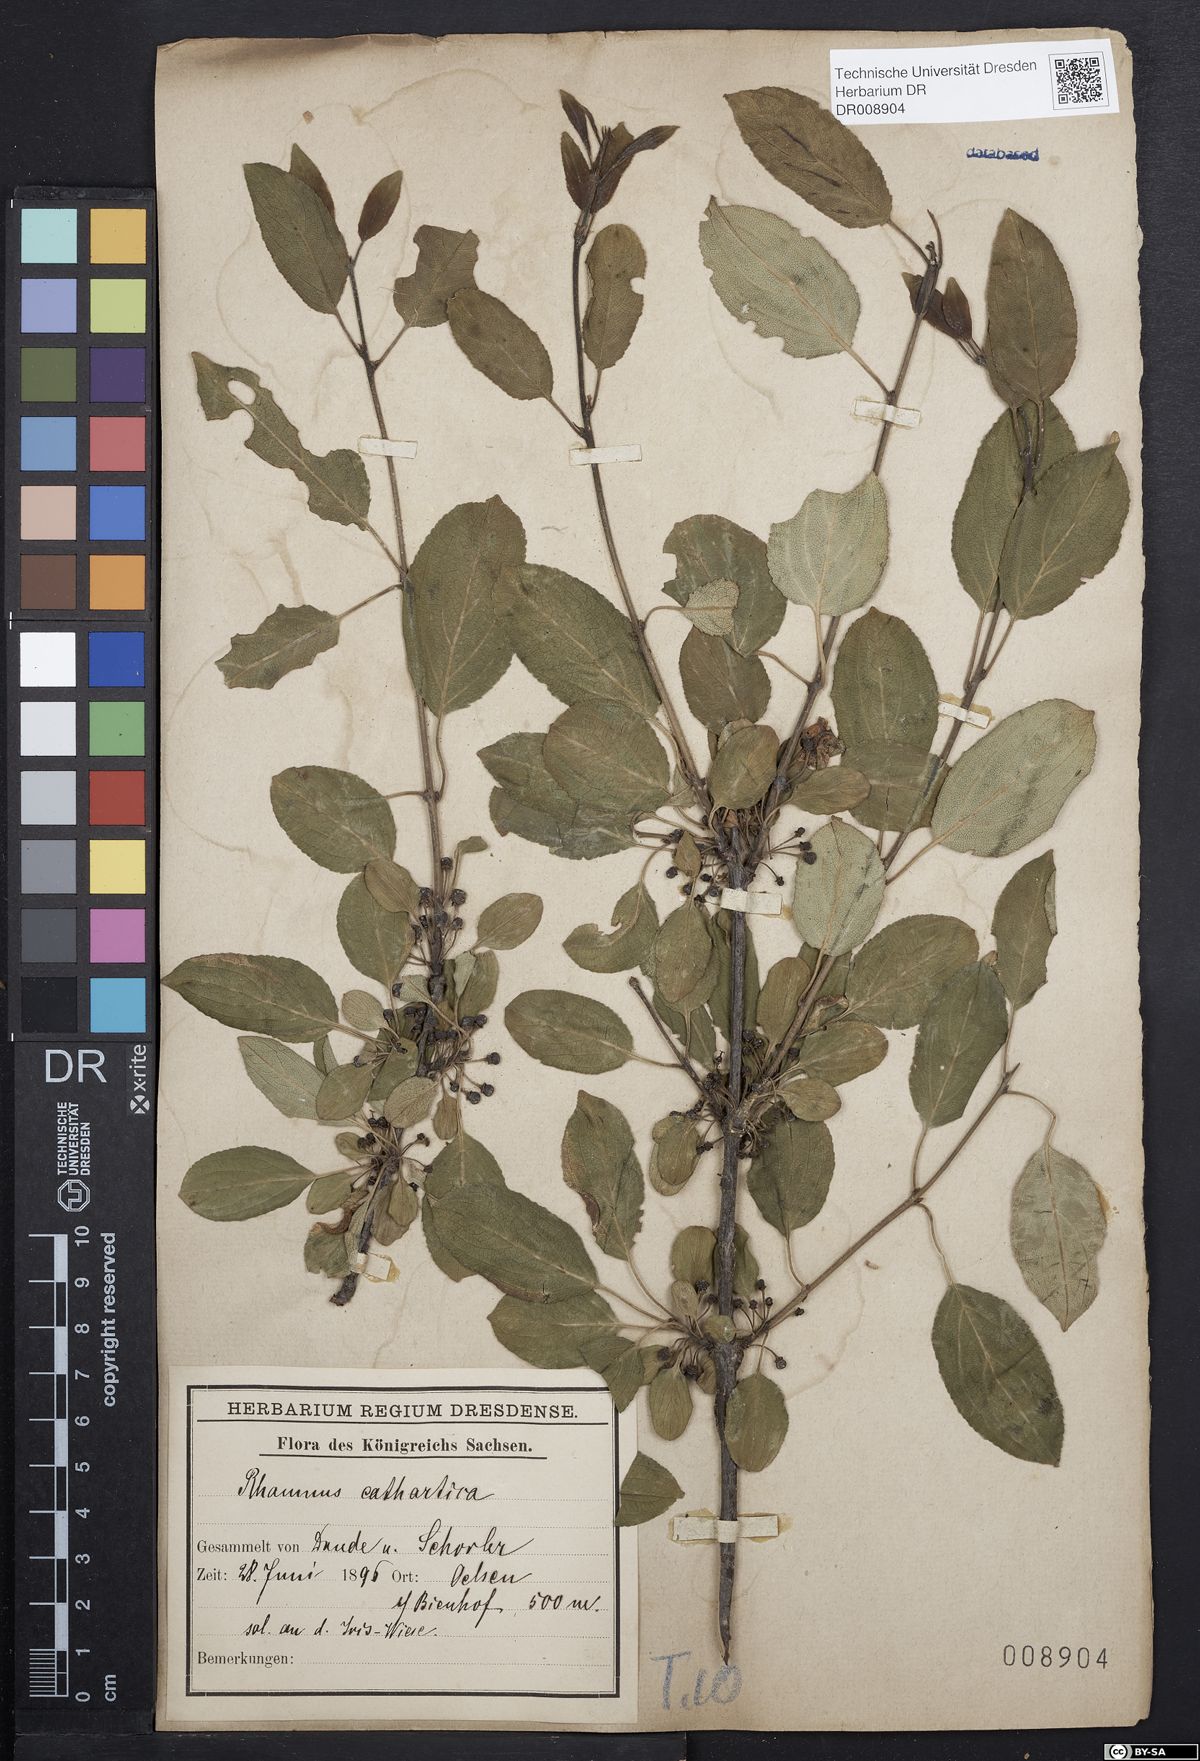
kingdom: Plantae
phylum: Tracheophyta
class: Magnoliopsida
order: Rosales
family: Rhamnaceae
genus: Rhamnus
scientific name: Rhamnus cathartica
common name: Common buckthorn
